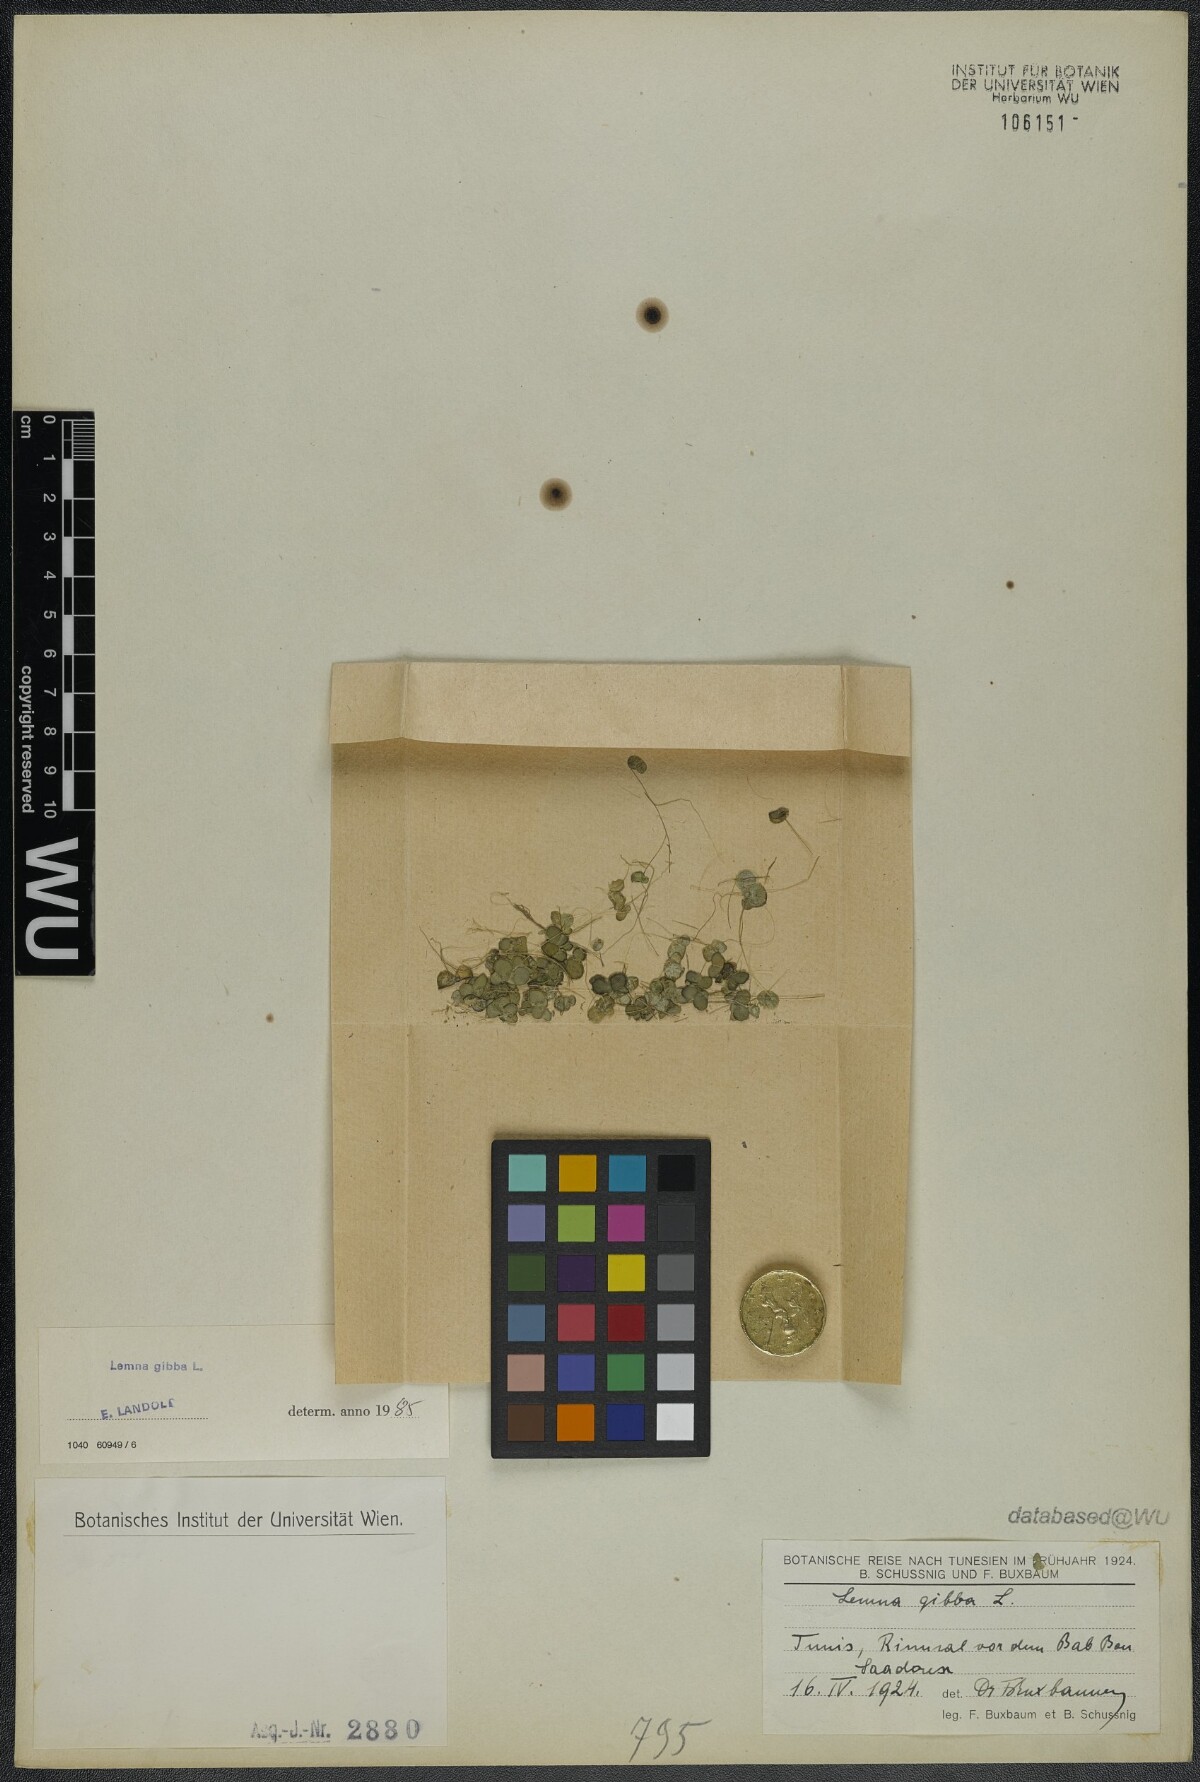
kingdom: Plantae
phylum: Tracheophyta
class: Liliopsida
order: Alismatales
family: Araceae
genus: Lemna
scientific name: Lemna gibba
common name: Fat duckweed
